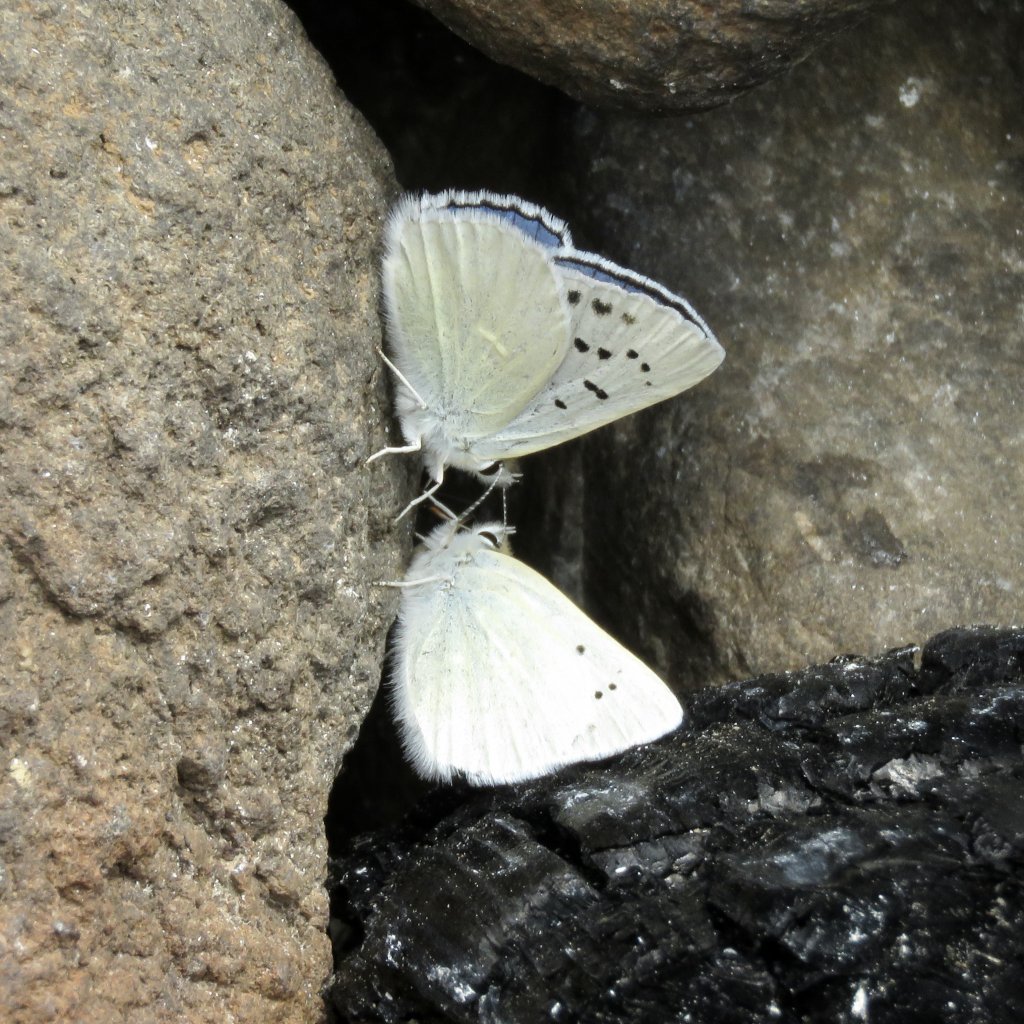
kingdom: Animalia
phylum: Arthropoda
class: Insecta
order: Lepidoptera
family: Lycaenidae
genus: Lycaena
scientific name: Lycaena heteronea
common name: Blue Copper
